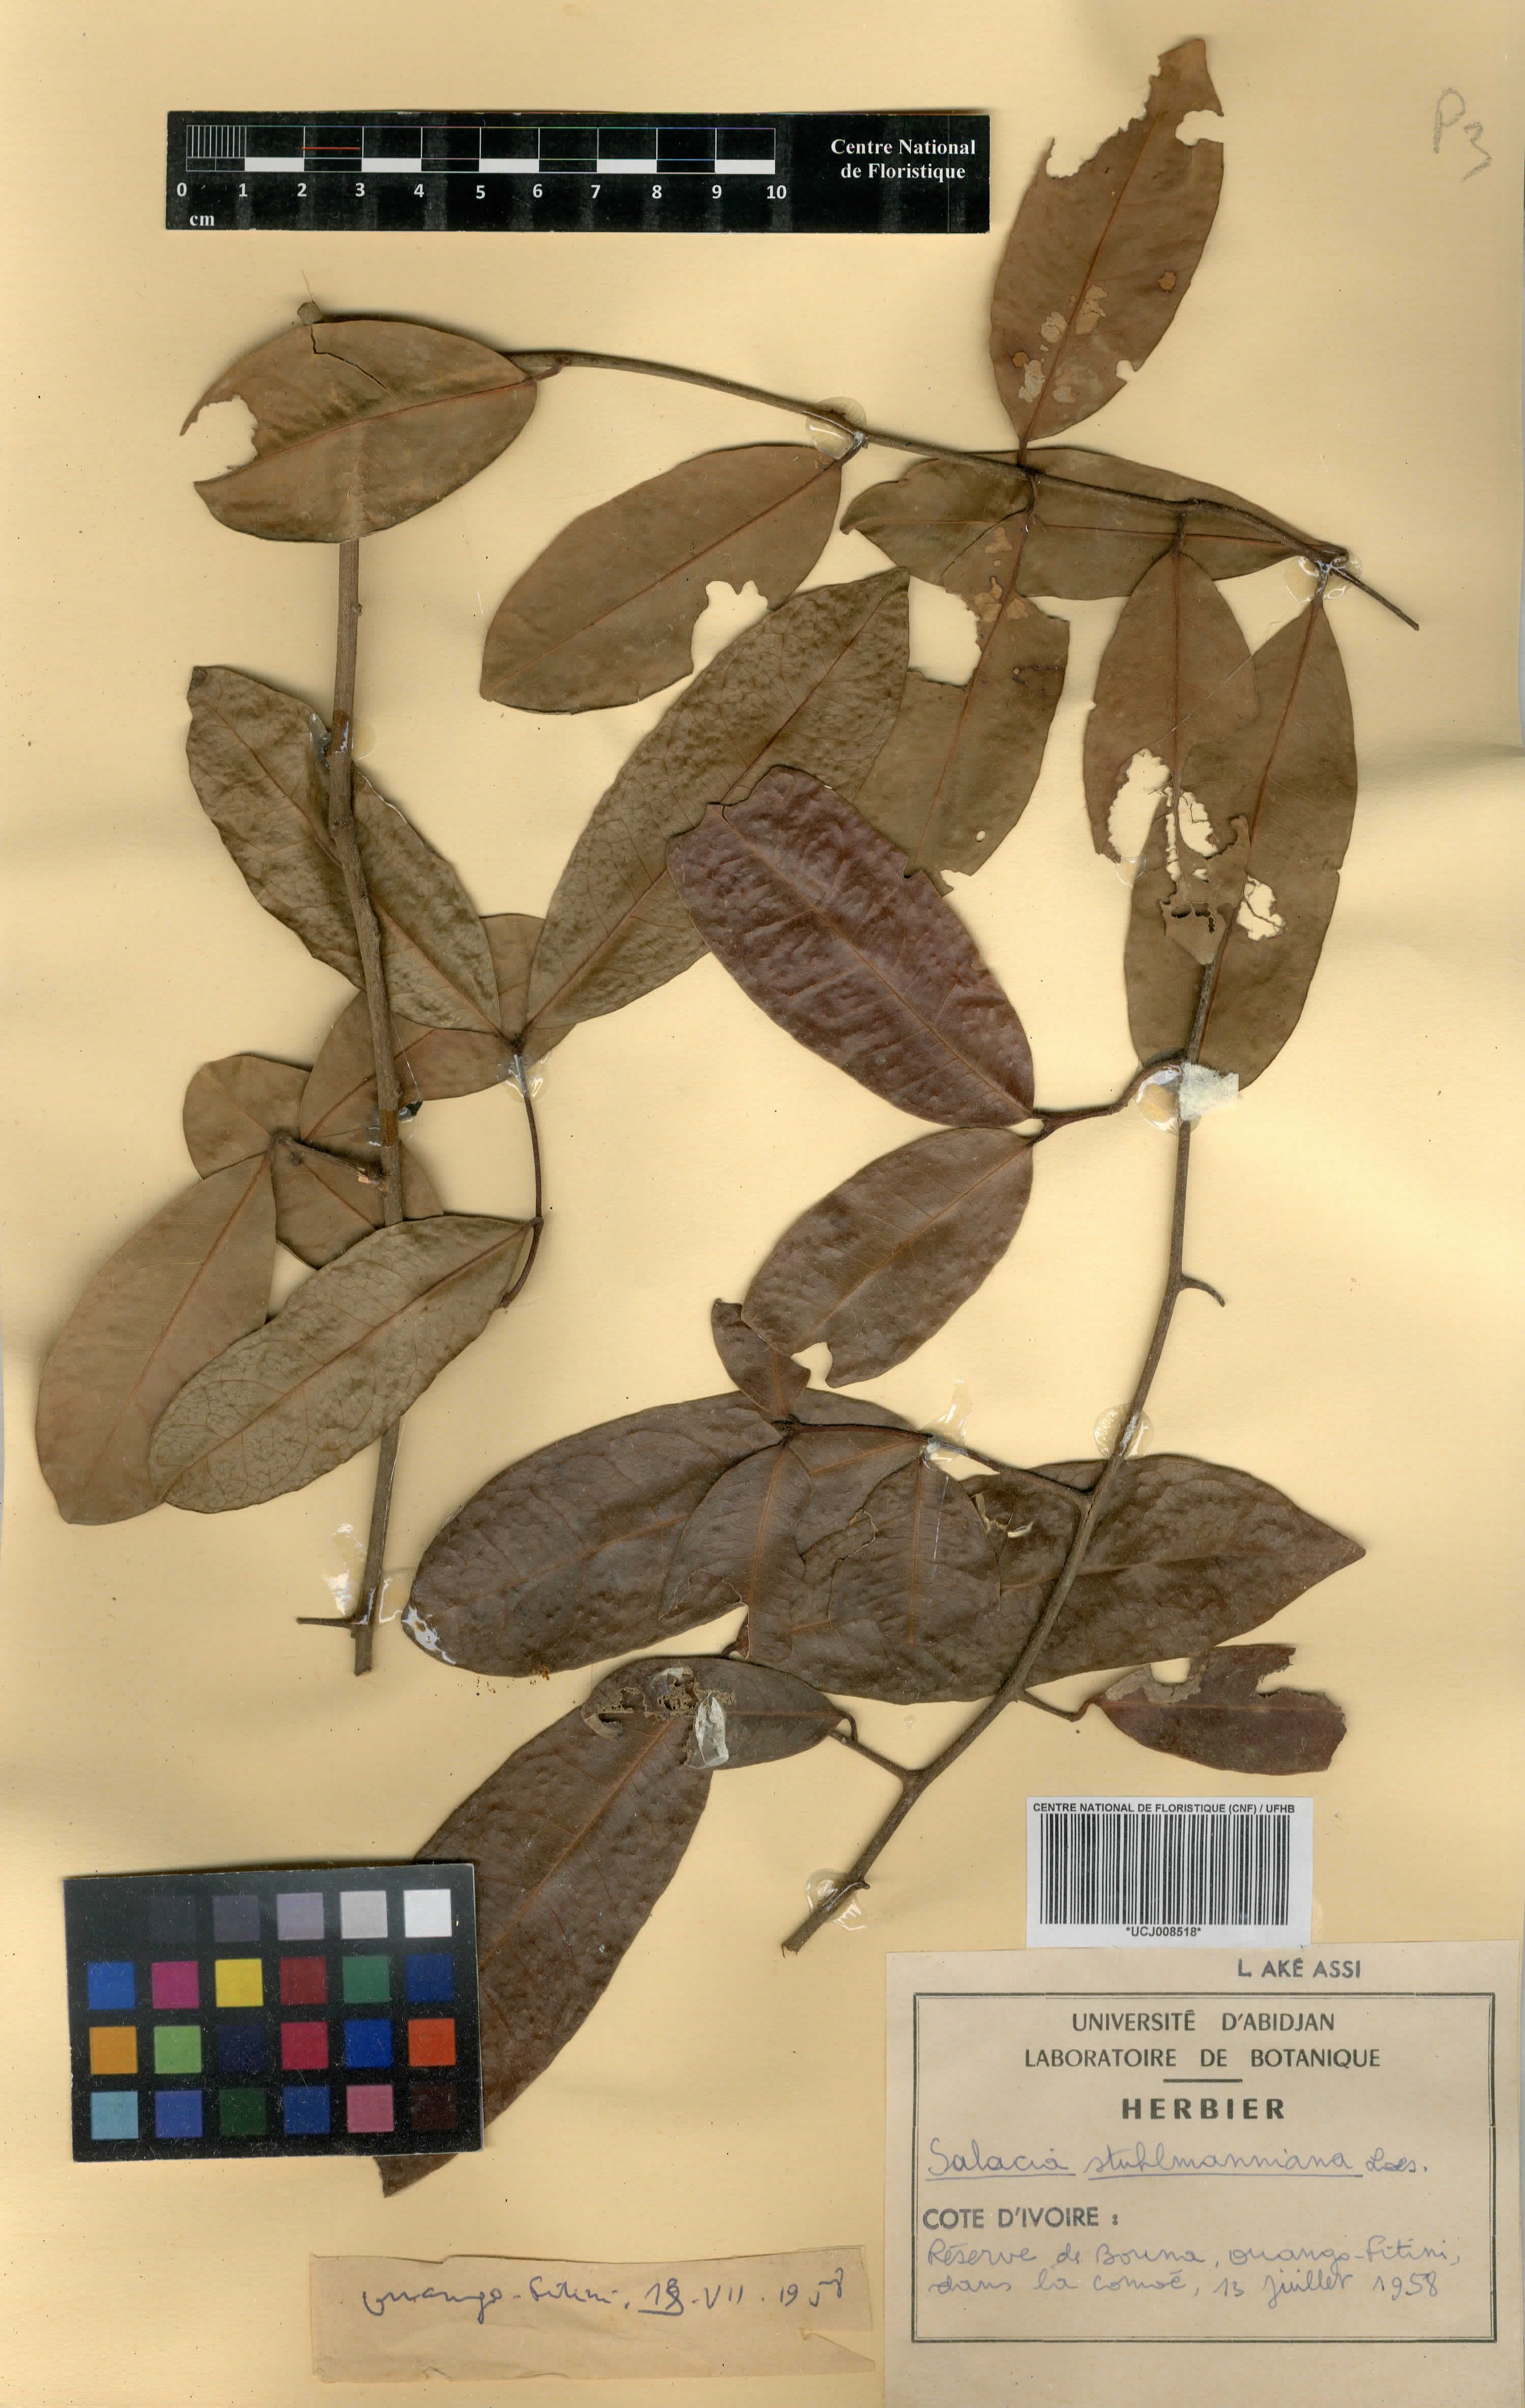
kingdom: Plantae
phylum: Tracheophyta
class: Magnoliopsida
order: Celastrales
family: Celastraceae
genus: Salacia
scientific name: Salacia stuhlmanniana
